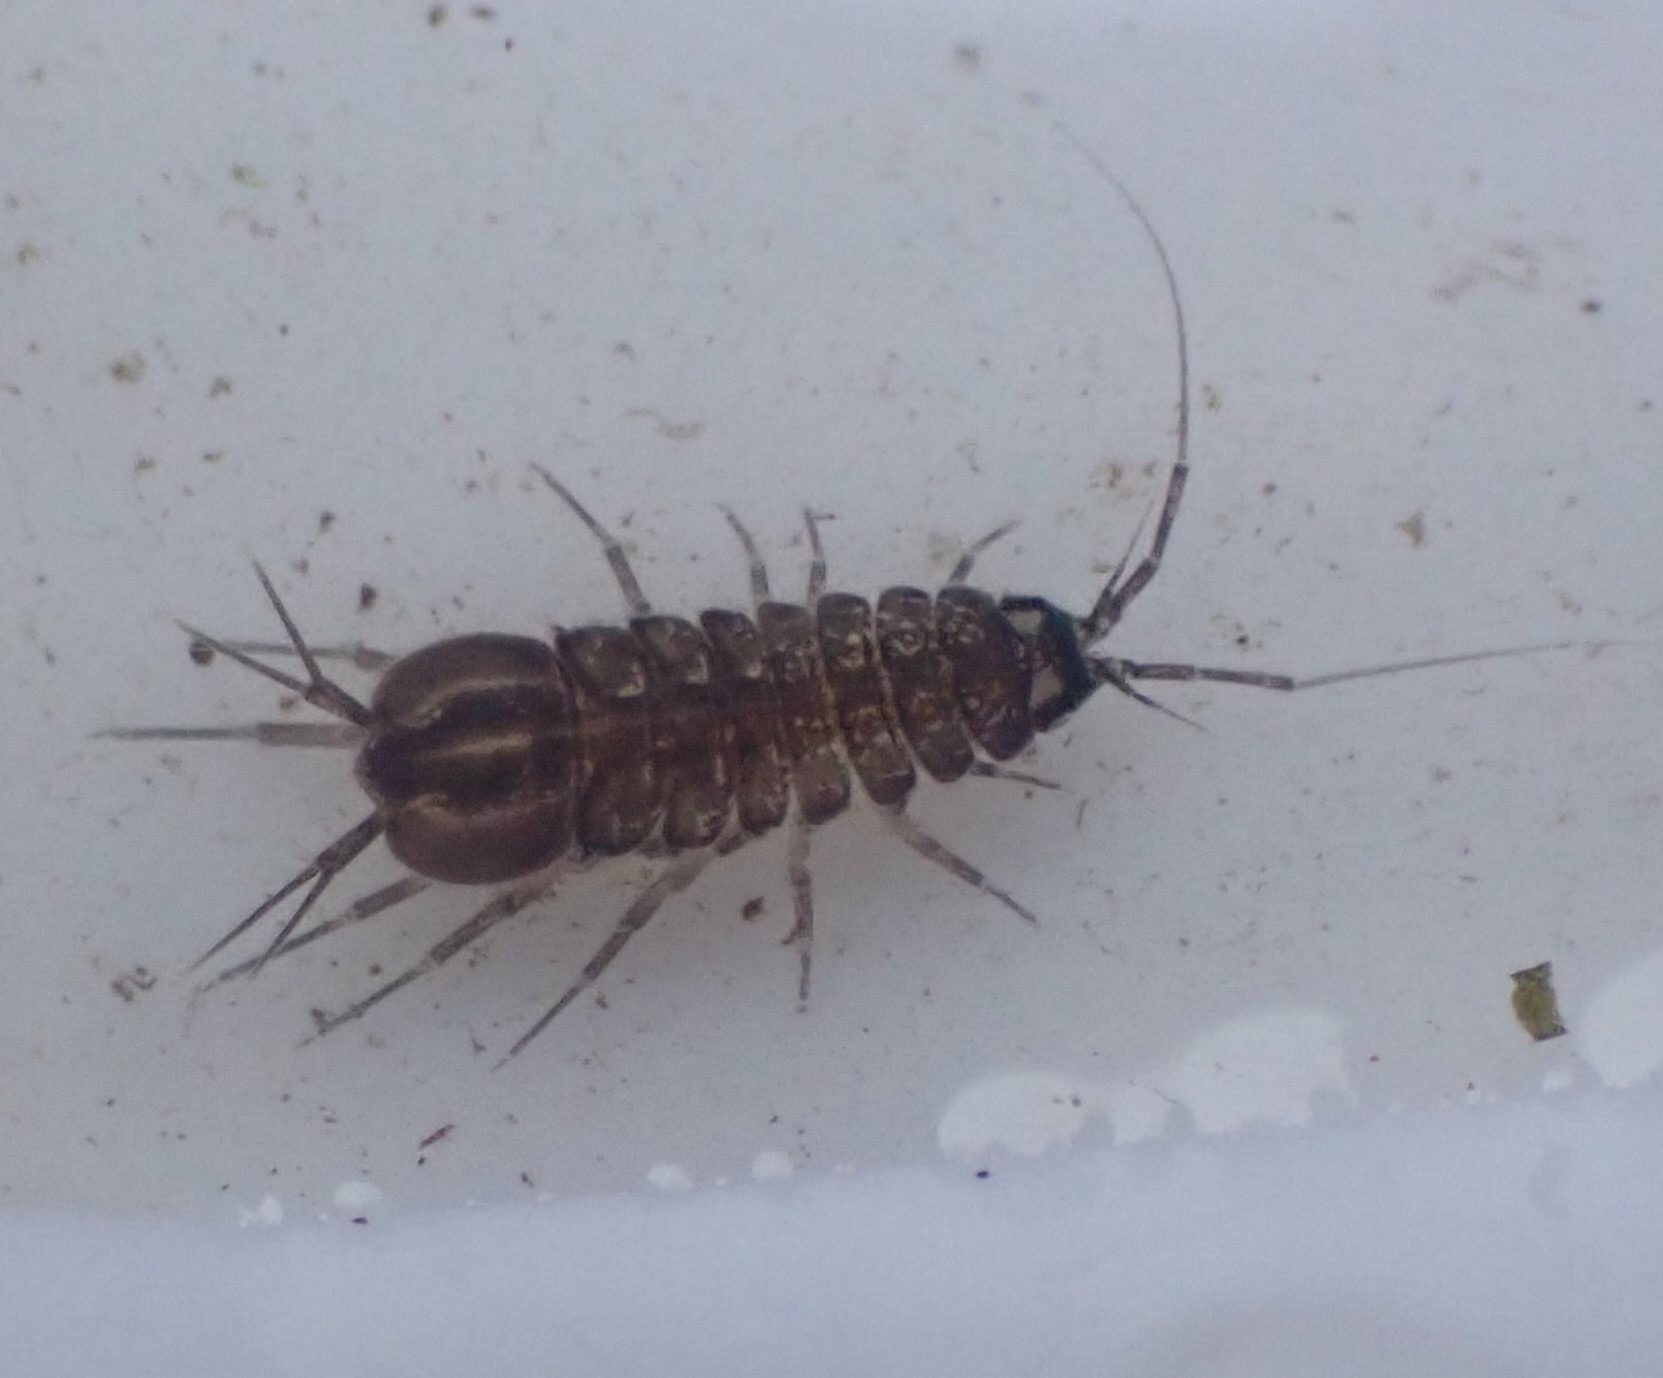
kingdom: Animalia
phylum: Arthropoda
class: Malacostraca
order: Isopoda
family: Asellidae
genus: Asellus
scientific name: Asellus aquaticus
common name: Vandbænkebider
